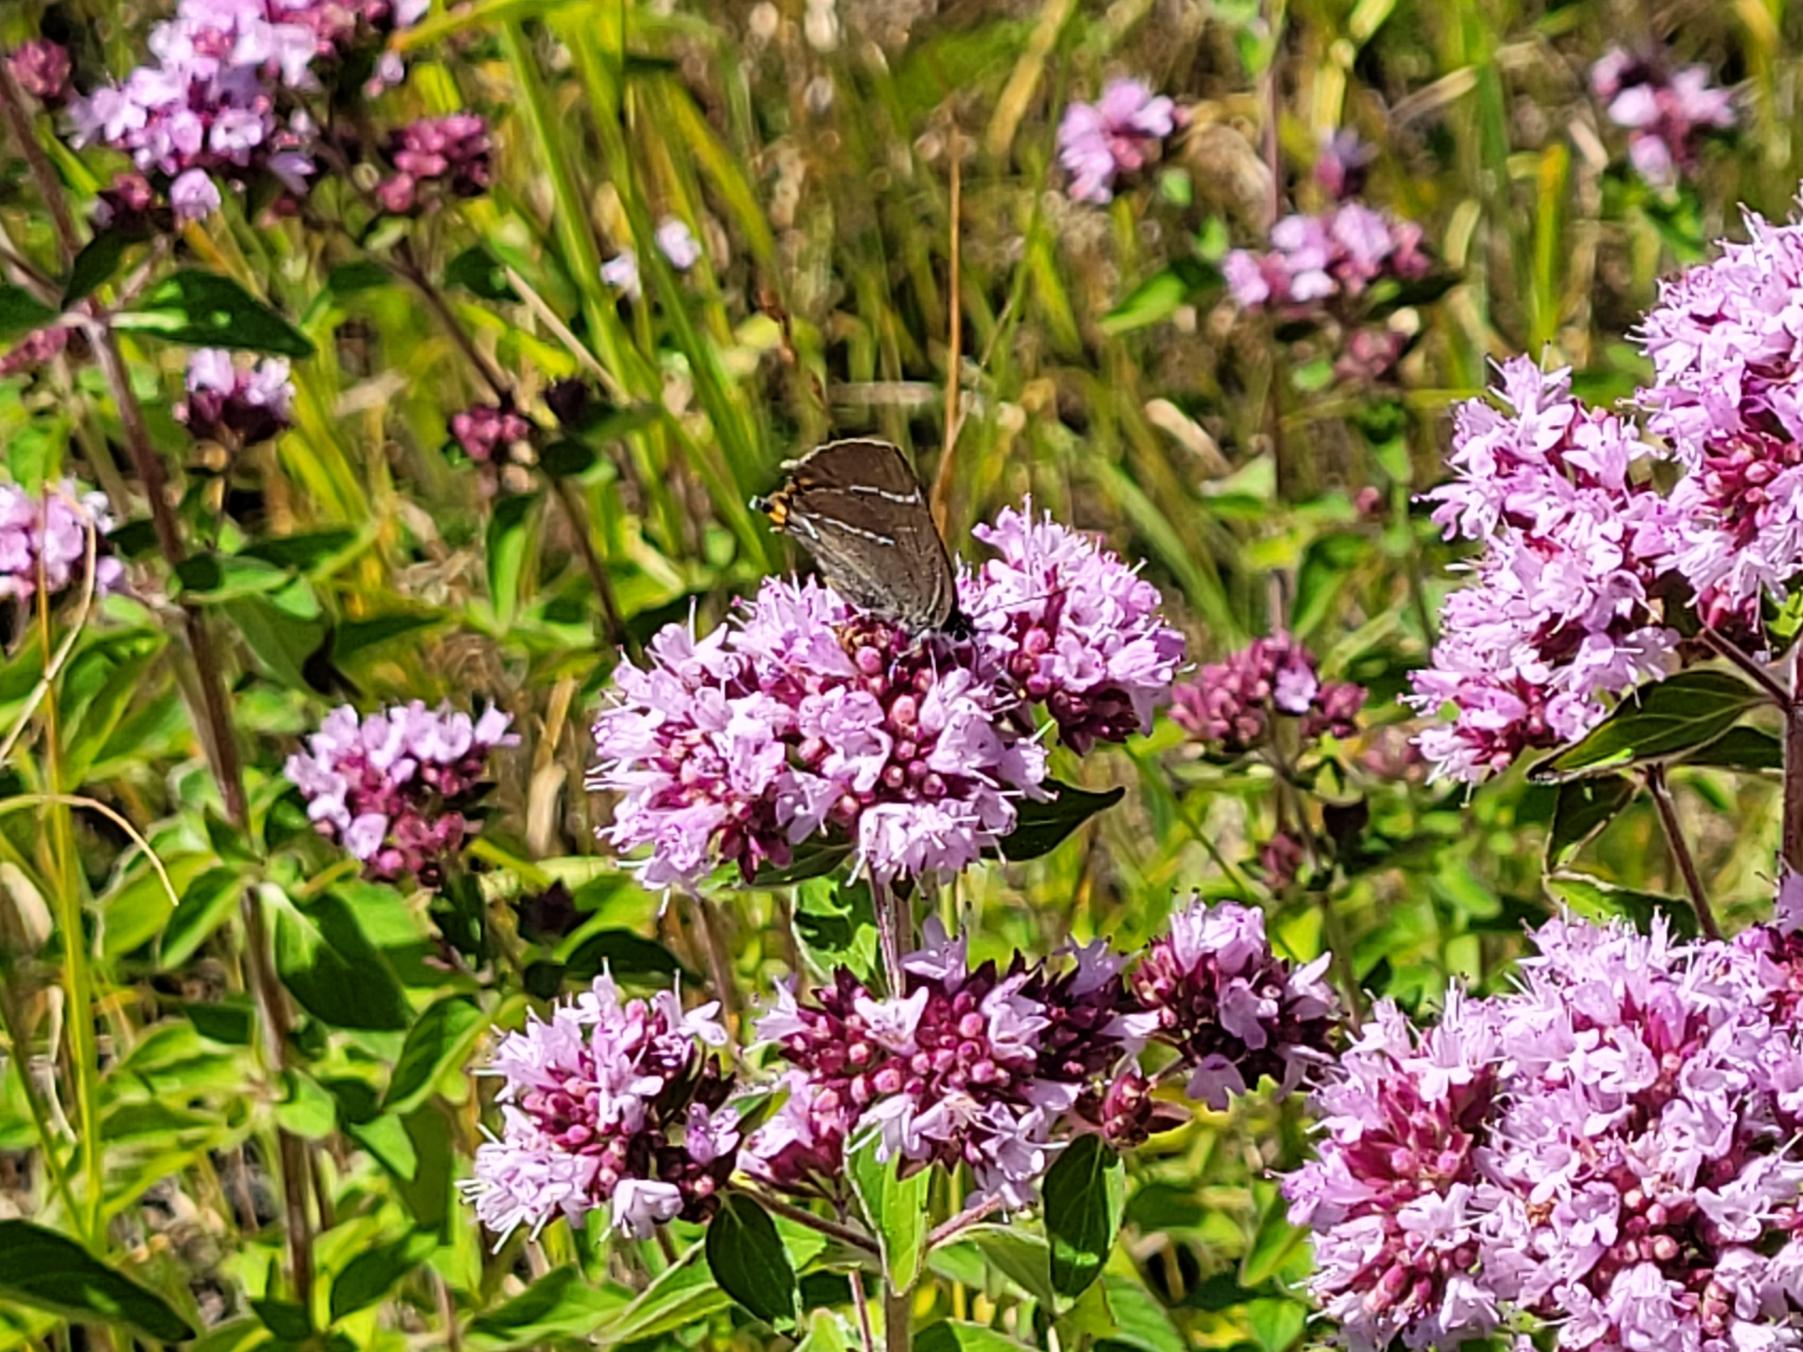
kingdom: Animalia
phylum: Arthropoda
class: Insecta
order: Lepidoptera
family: Lycaenidae
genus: Satyrium
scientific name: Satyrium w-album
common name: Det hvide W
